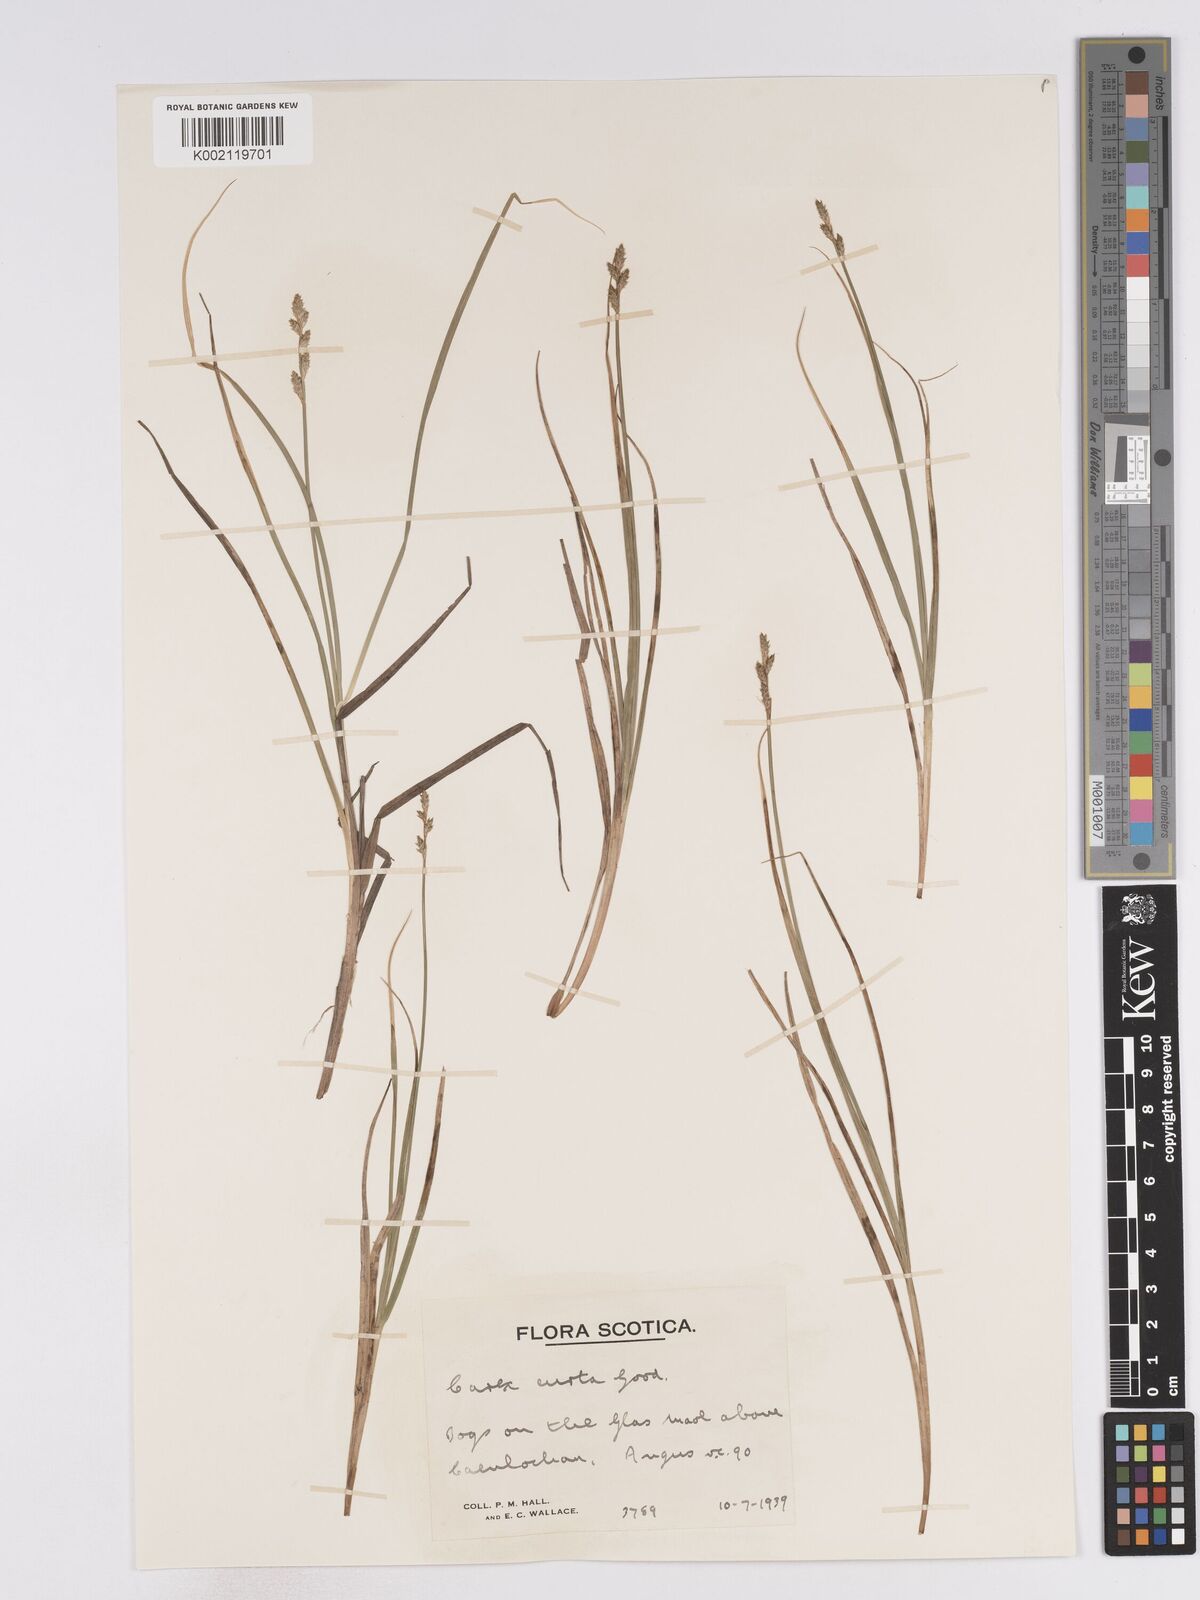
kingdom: Plantae
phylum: Tracheophyta
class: Liliopsida
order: Poales
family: Cyperaceae
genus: Carex
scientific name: Carex curta
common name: White sedge
